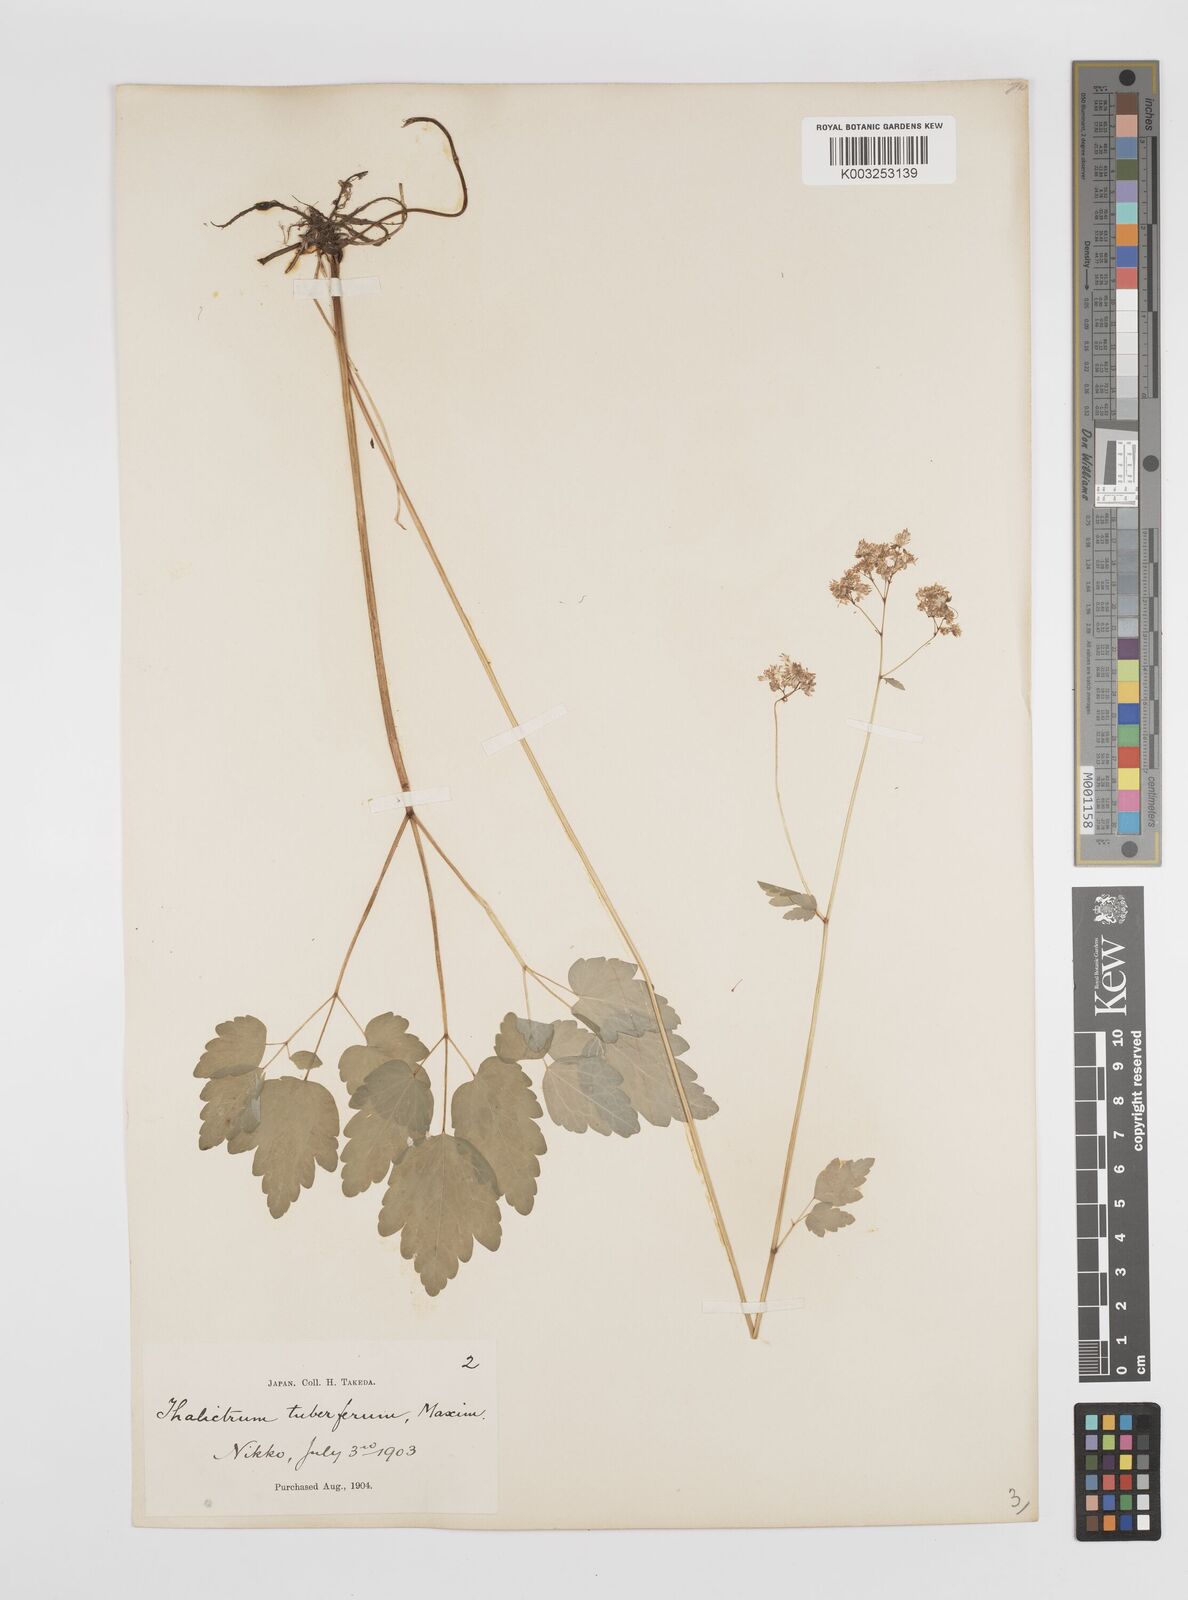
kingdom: Plantae
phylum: Tracheophyta
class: Magnoliopsida
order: Ranunculales
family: Ranunculaceae
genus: Thalictrum
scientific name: Thalictrum tuberiferum
